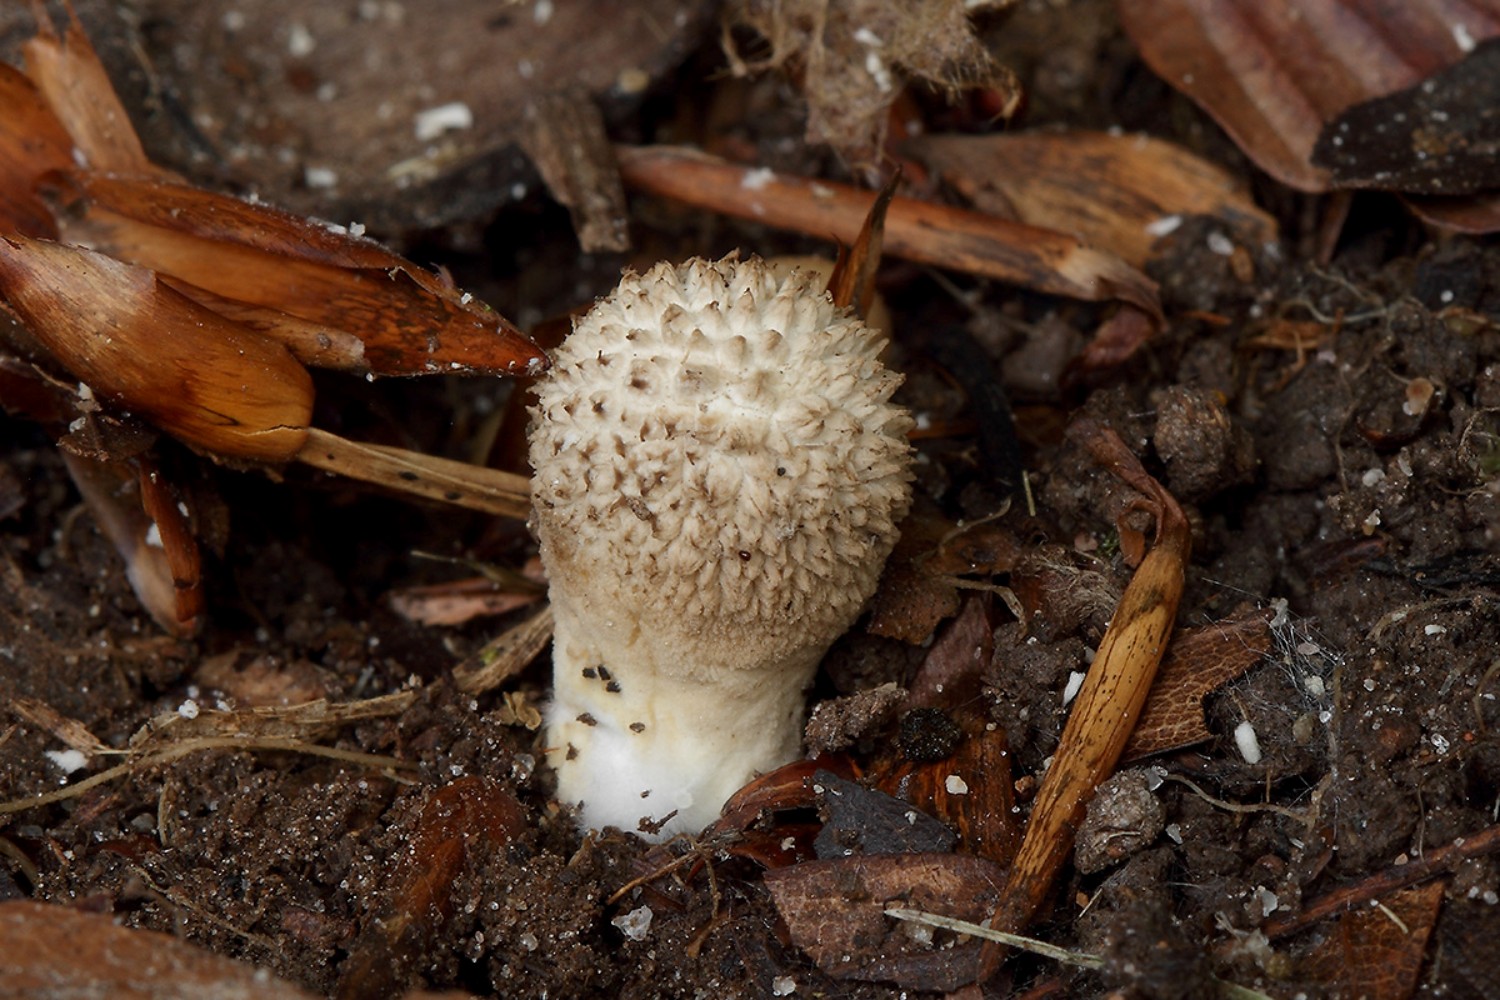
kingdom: Fungi
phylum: Basidiomycota
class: Agaricomycetes
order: Agaricales
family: Lycoperdaceae
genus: Lycoperdon
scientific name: Lycoperdon excipuliforme
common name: højstokket støvbold
